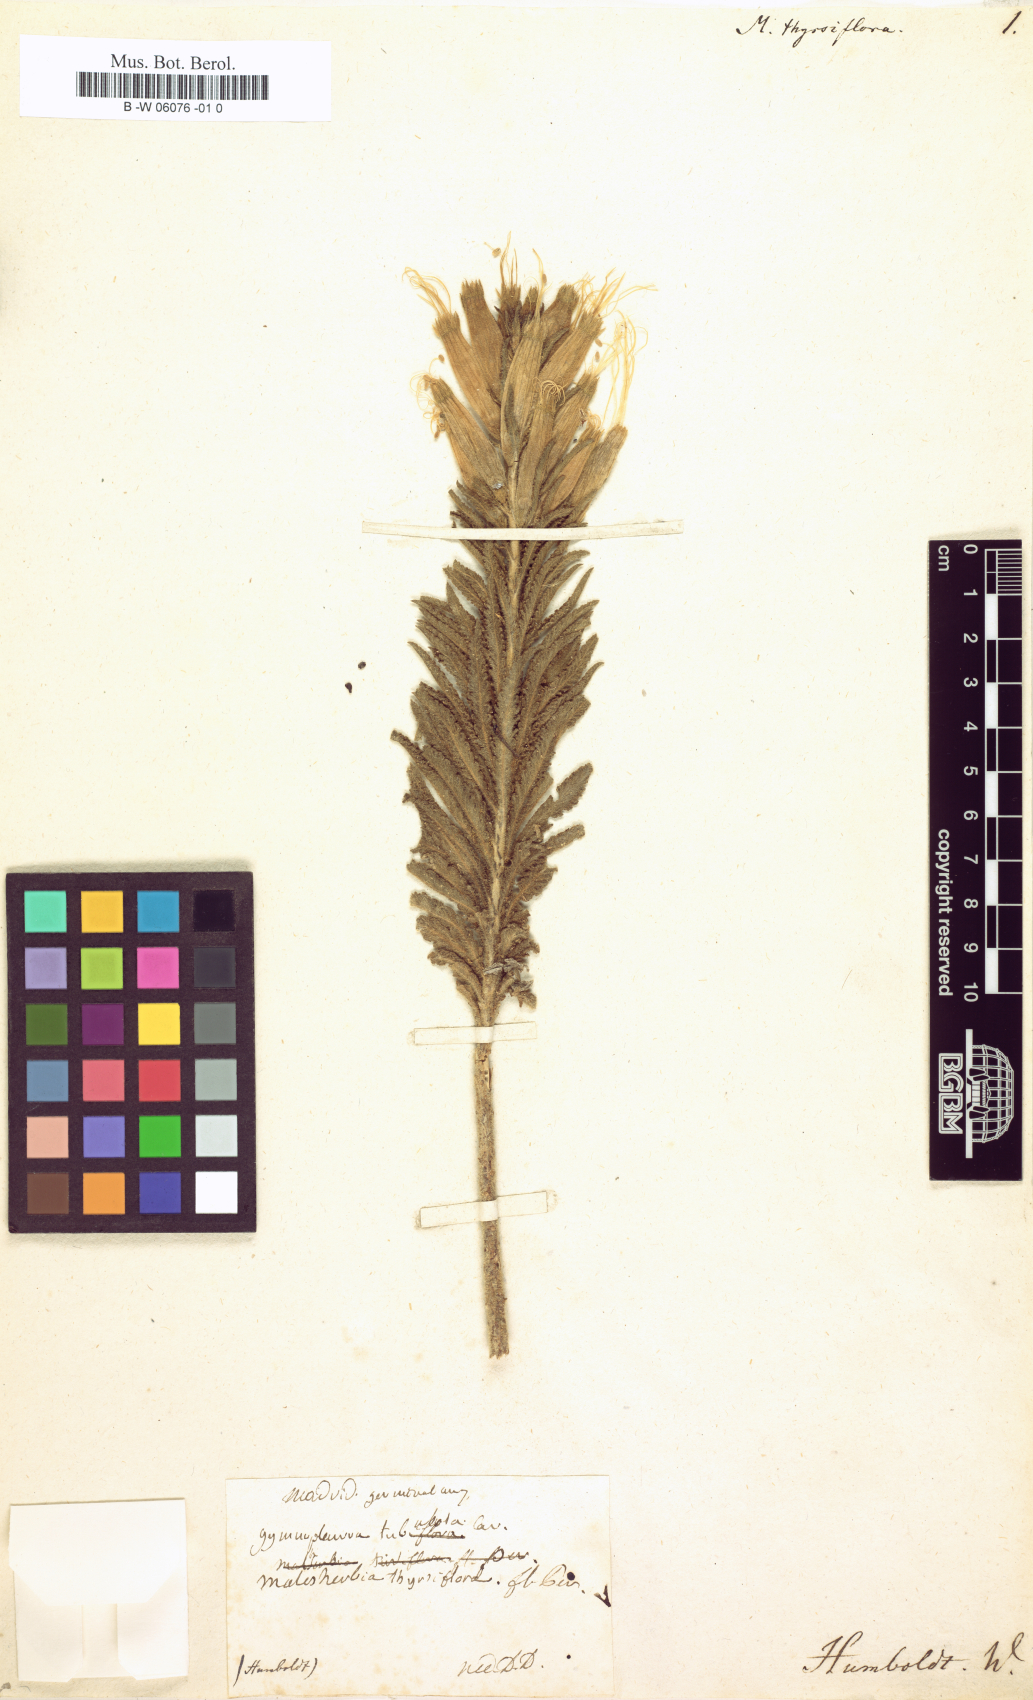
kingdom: Plantae
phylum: Tracheophyta
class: Magnoliopsida
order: Malpighiales
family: Malesherbiaceae
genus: Malesherbia
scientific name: Malesherbia tubulosa
